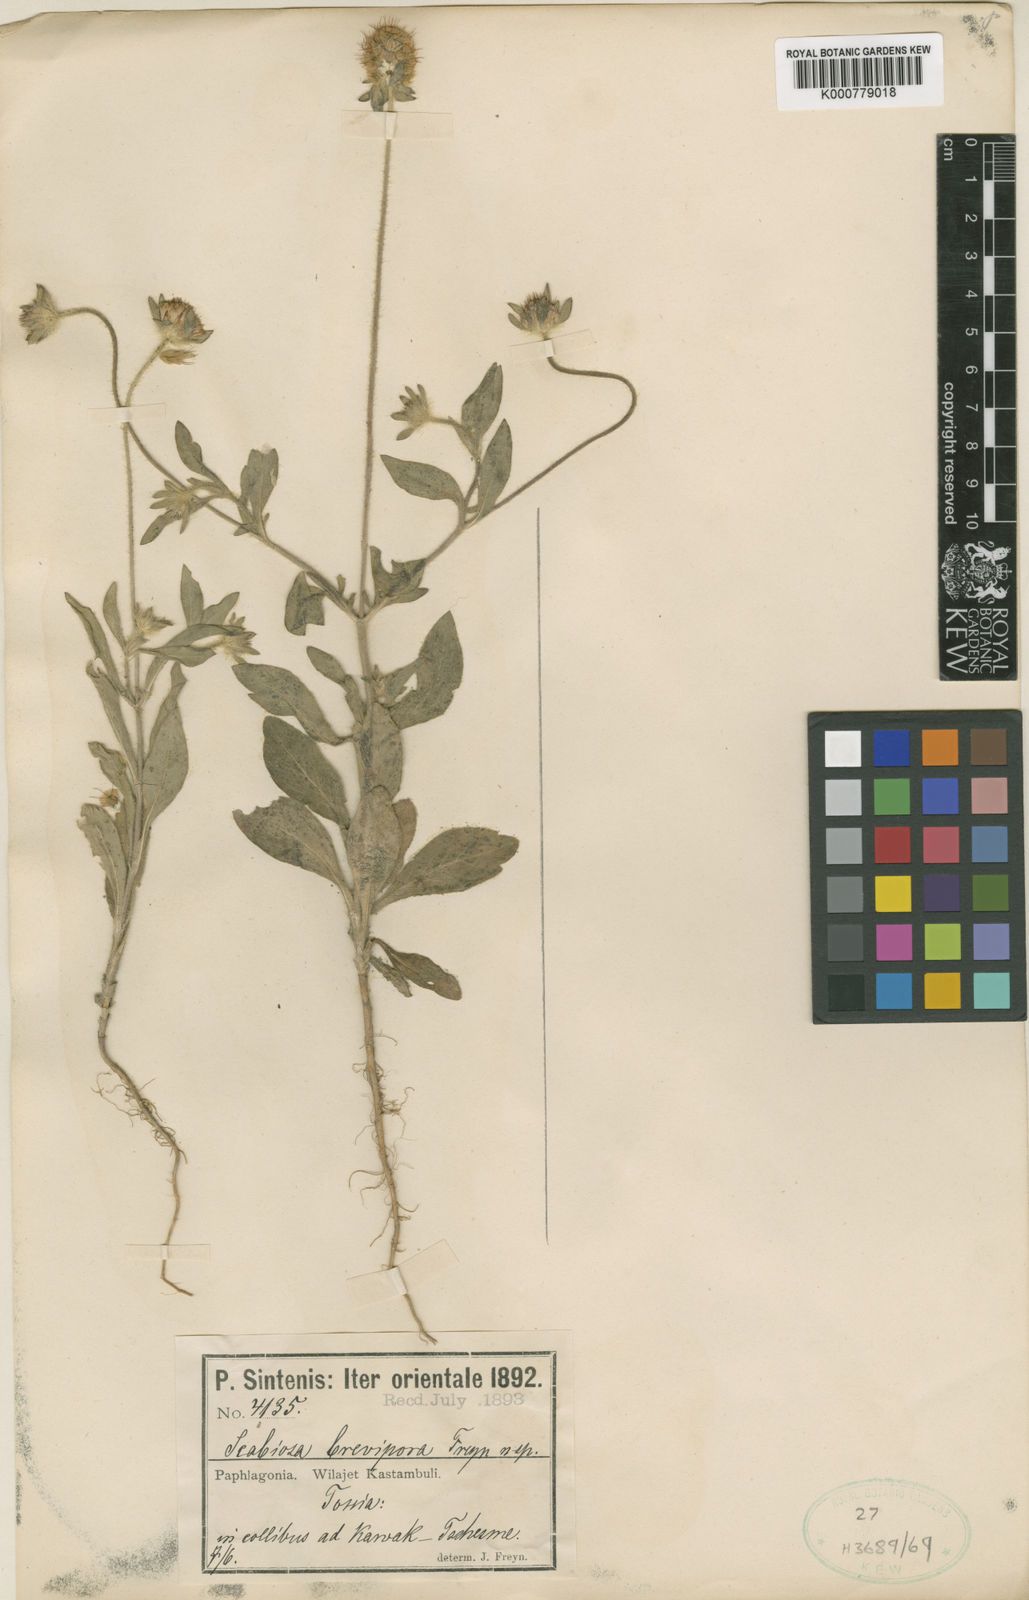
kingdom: Plantae
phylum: Tracheophyta
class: Magnoliopsida
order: Dipsacales
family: Caprifoliaceae
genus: Lomelosia
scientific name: Lomelosia micrantha
